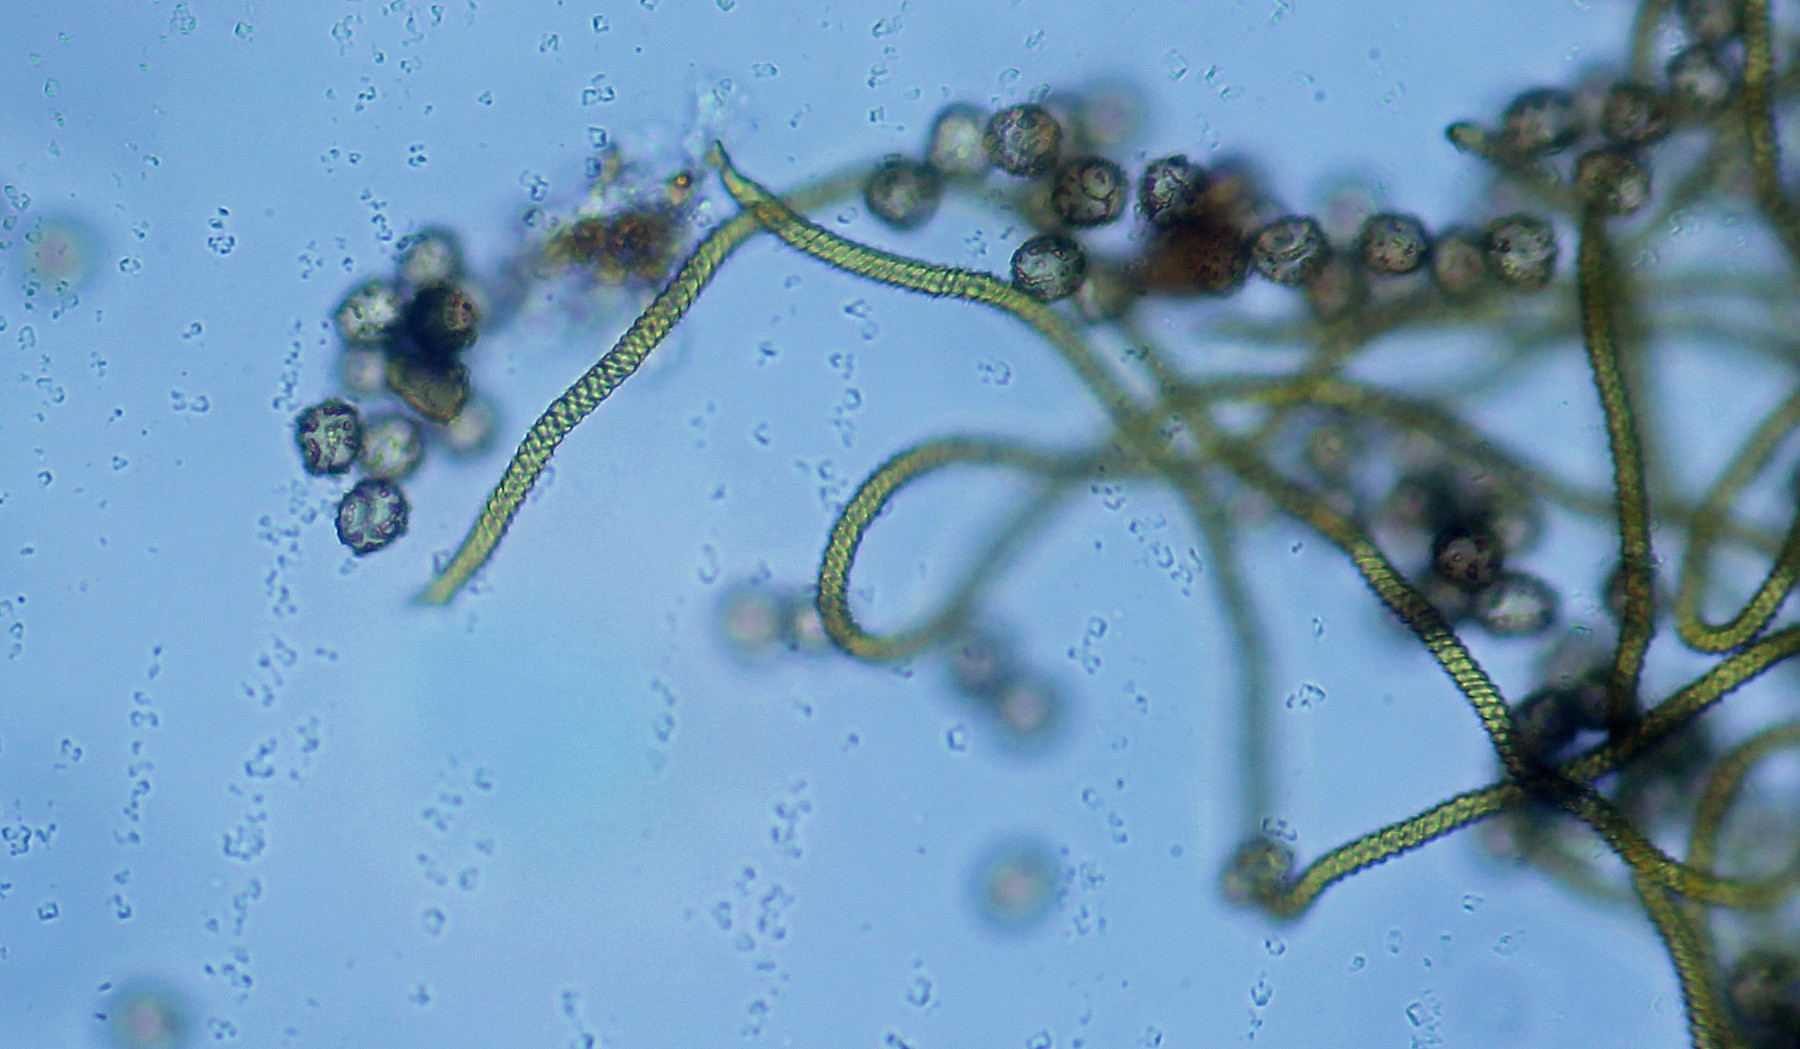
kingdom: Protozoa
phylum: Mycetozoa
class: Myxomycetes
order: Trichiales
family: Trichiaceae
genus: Oligonema
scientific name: Oligonema persimile
